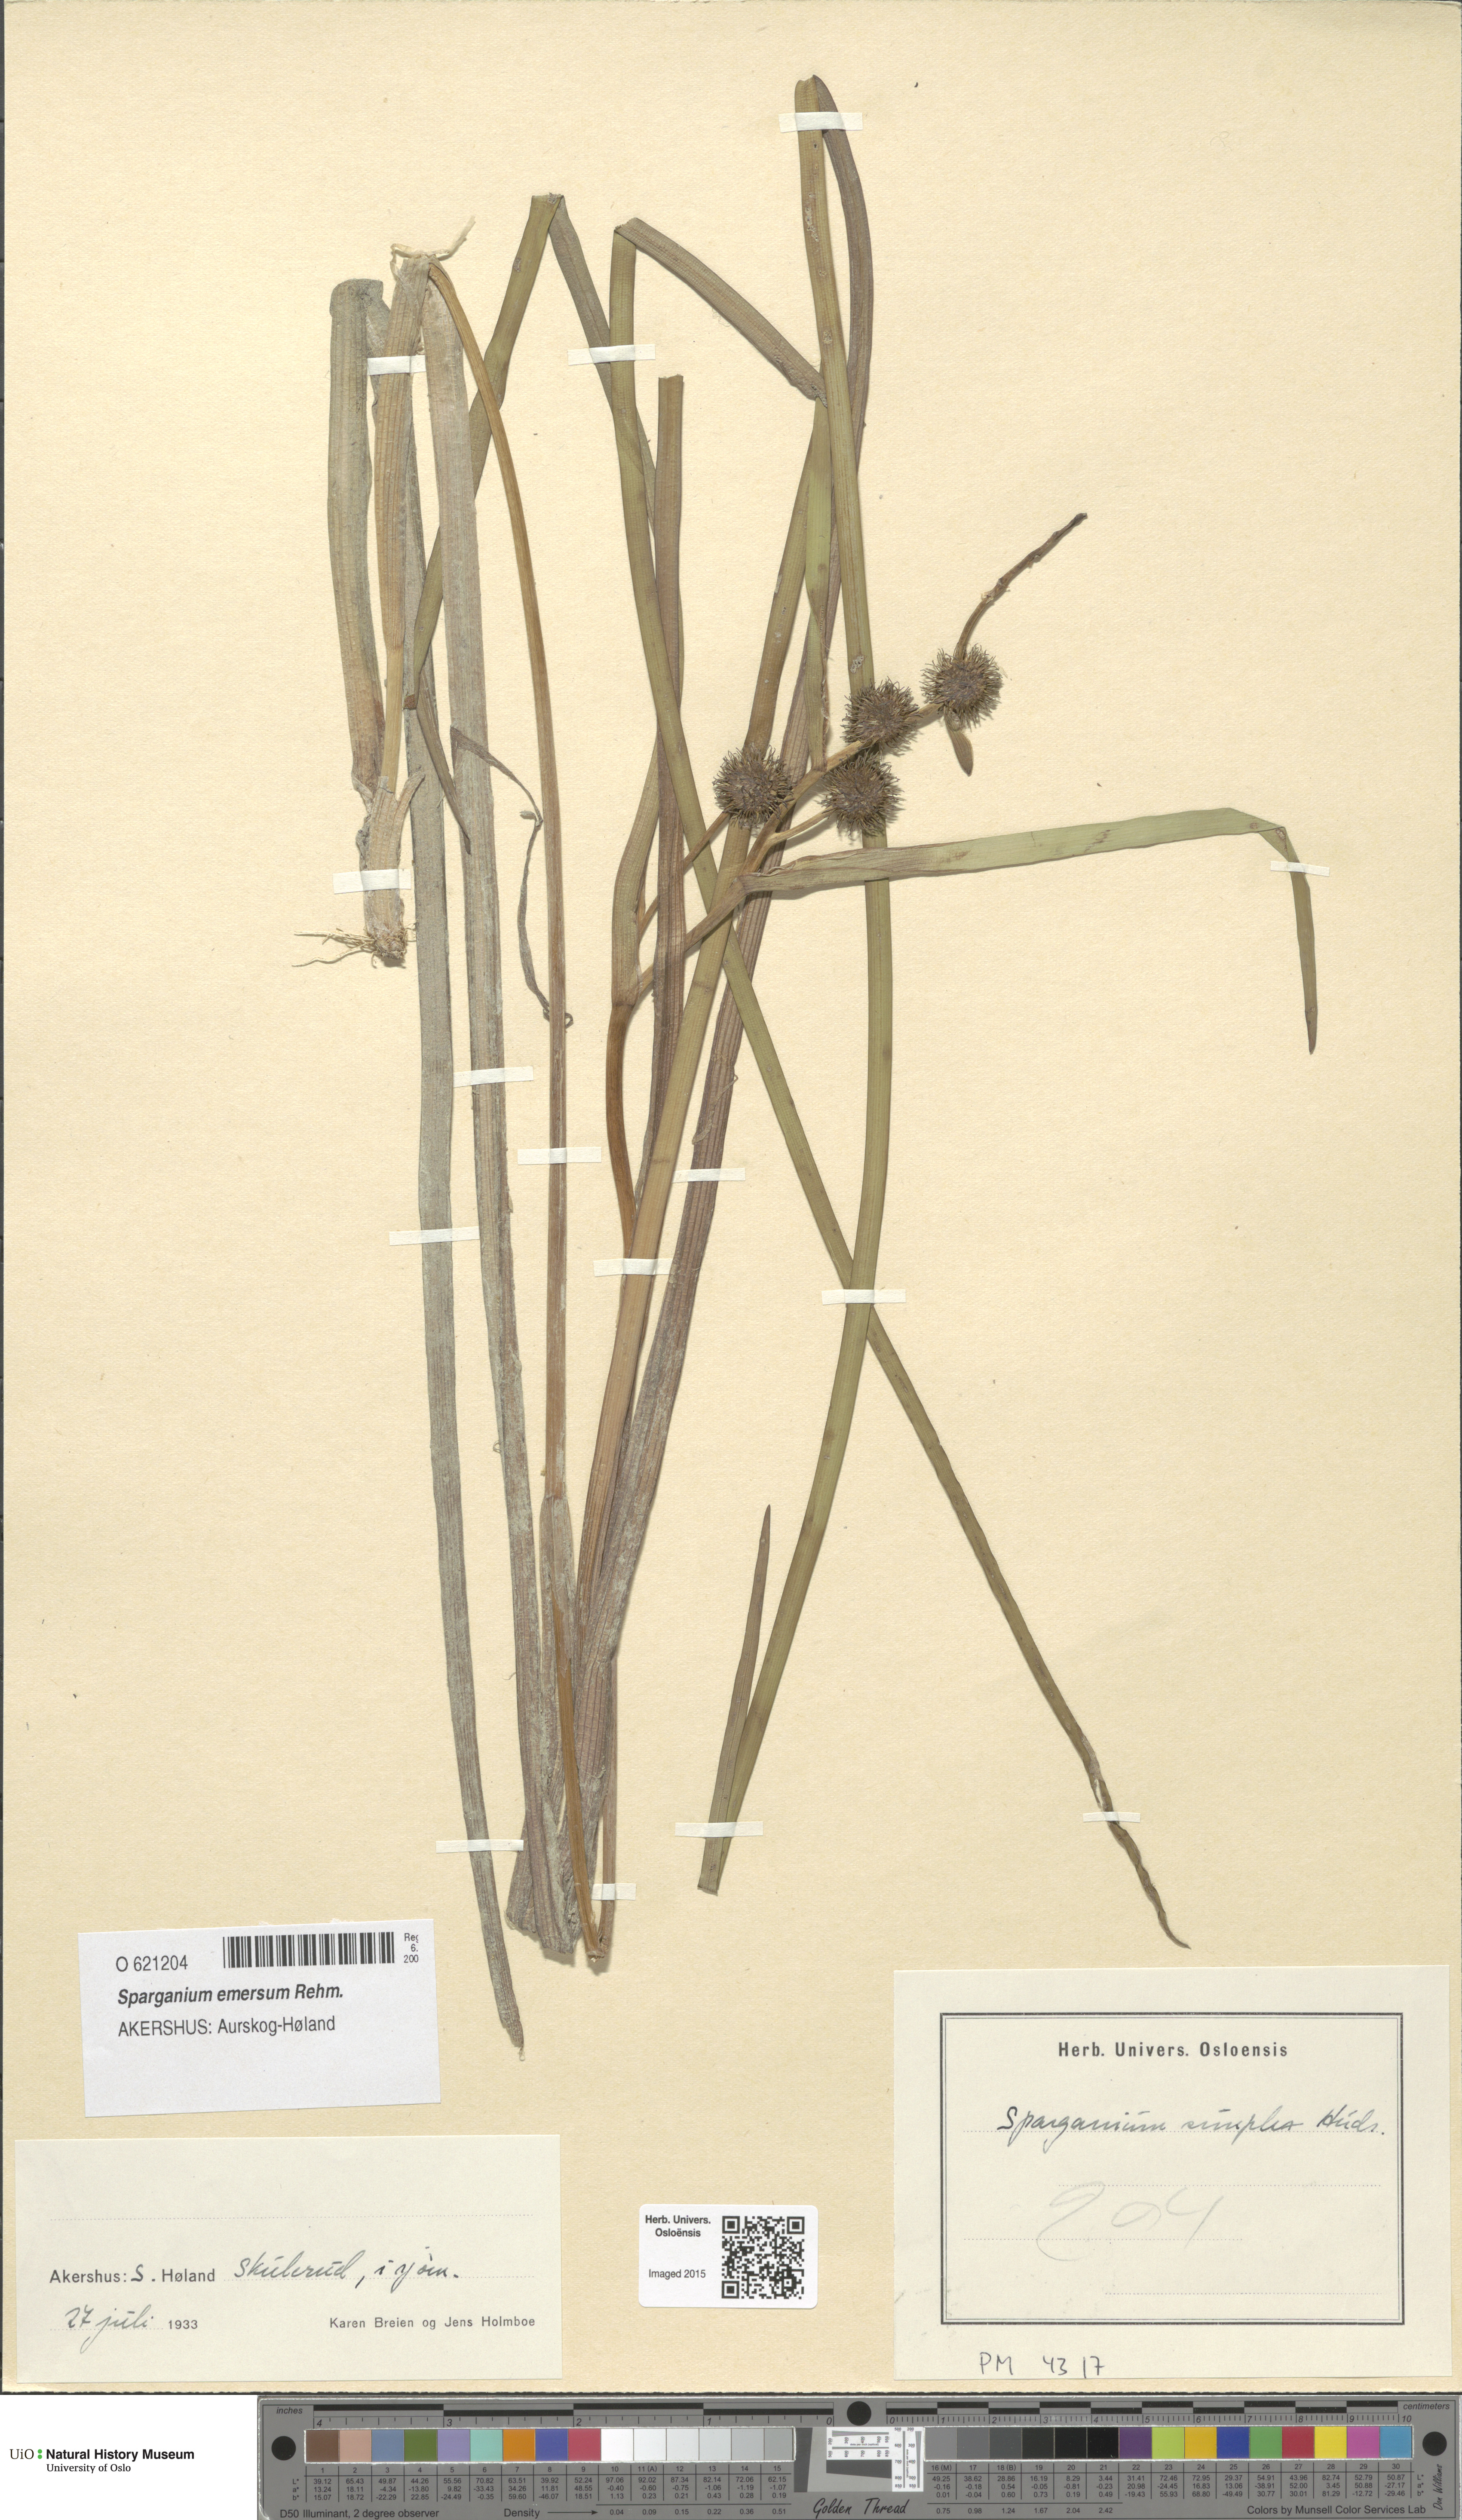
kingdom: Plantae
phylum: Tracheophyta
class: Liliopsida
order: Poales
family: Typhaceae
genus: Sparganium
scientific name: Sparganium emersum
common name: Unbranched bur-reed
